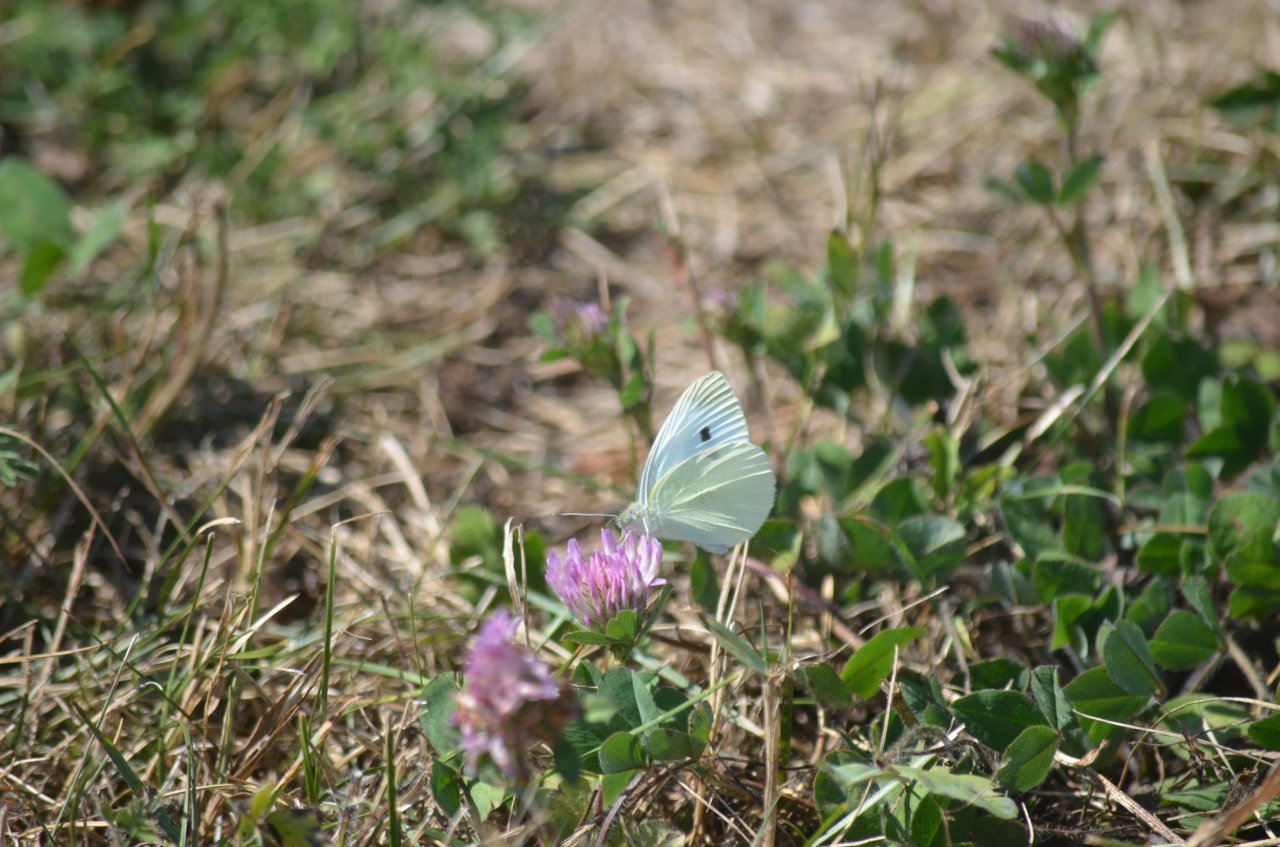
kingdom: Animalia
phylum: Arthropoda
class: Insecta
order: Lepidoptera
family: Pieridae
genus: Pieris
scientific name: Pieris rapae
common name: Cabbage White
